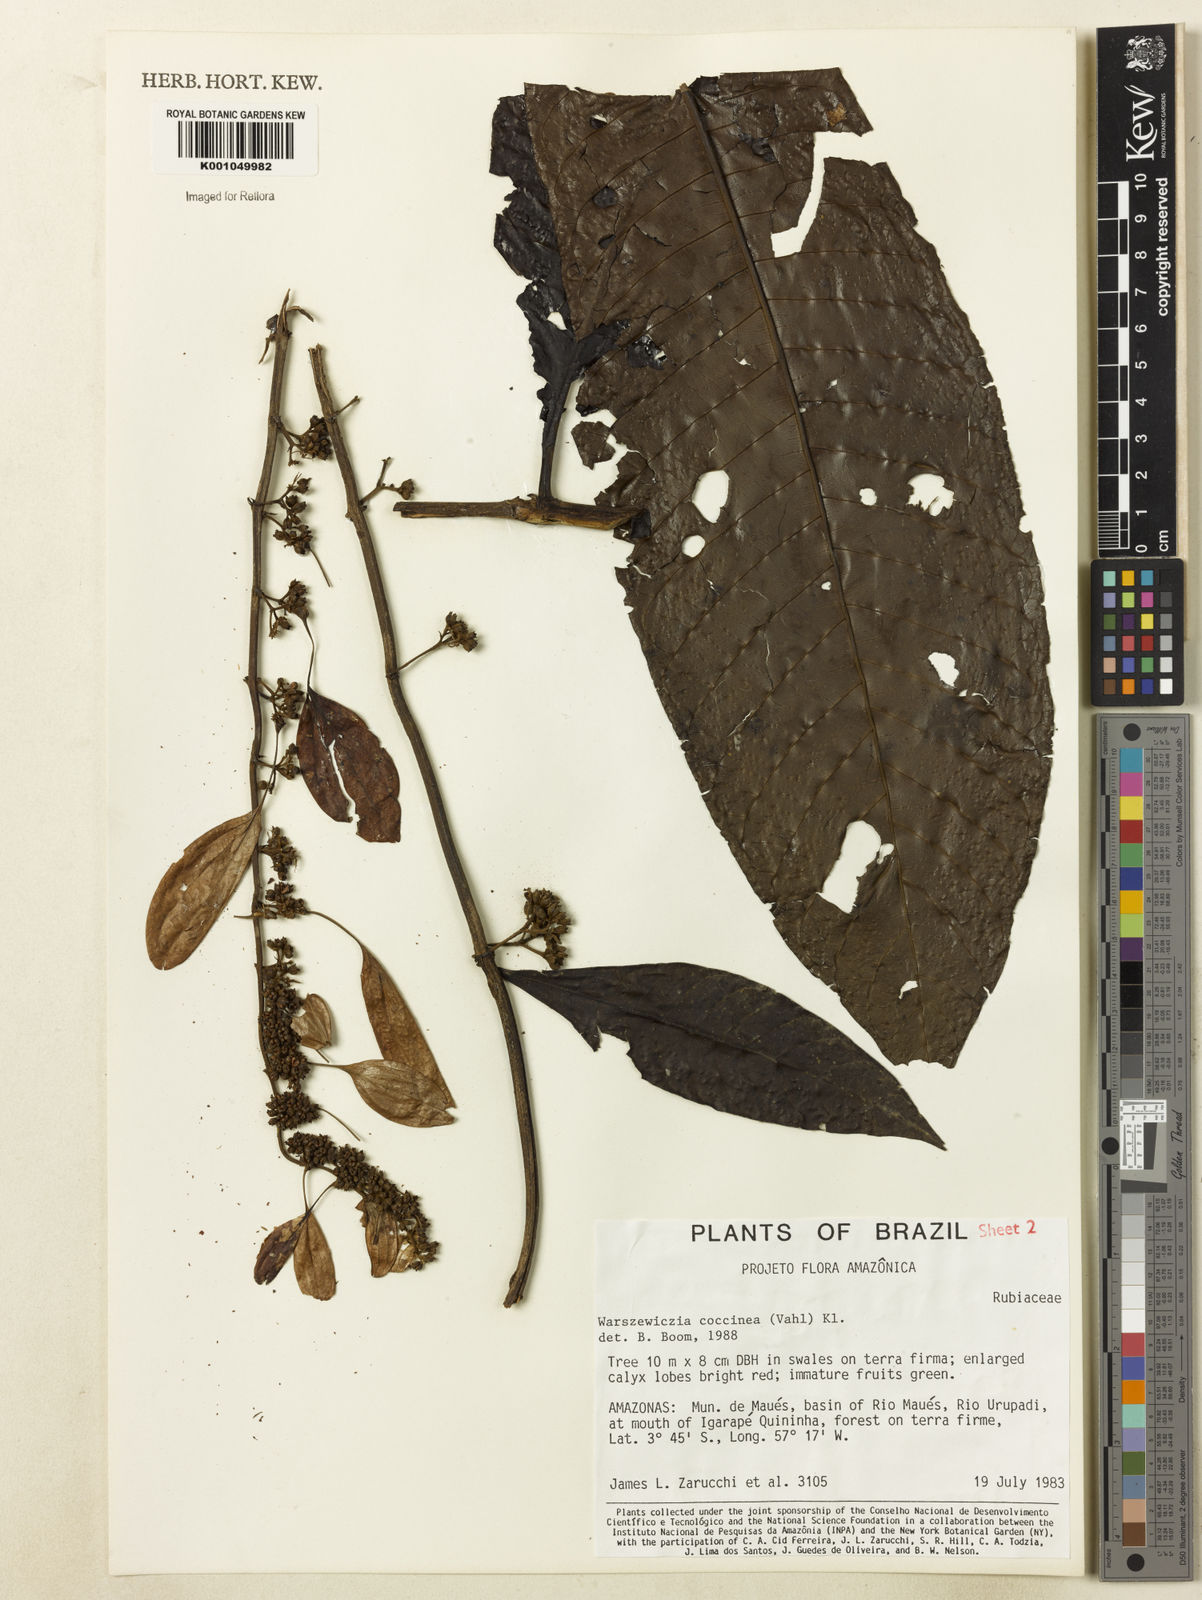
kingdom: Plantae
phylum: Tracheophyta
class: Magnoliopsida
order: Gentianales
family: Rubiaceae
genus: Warszewiczia
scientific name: Warszewiczia coccinea
